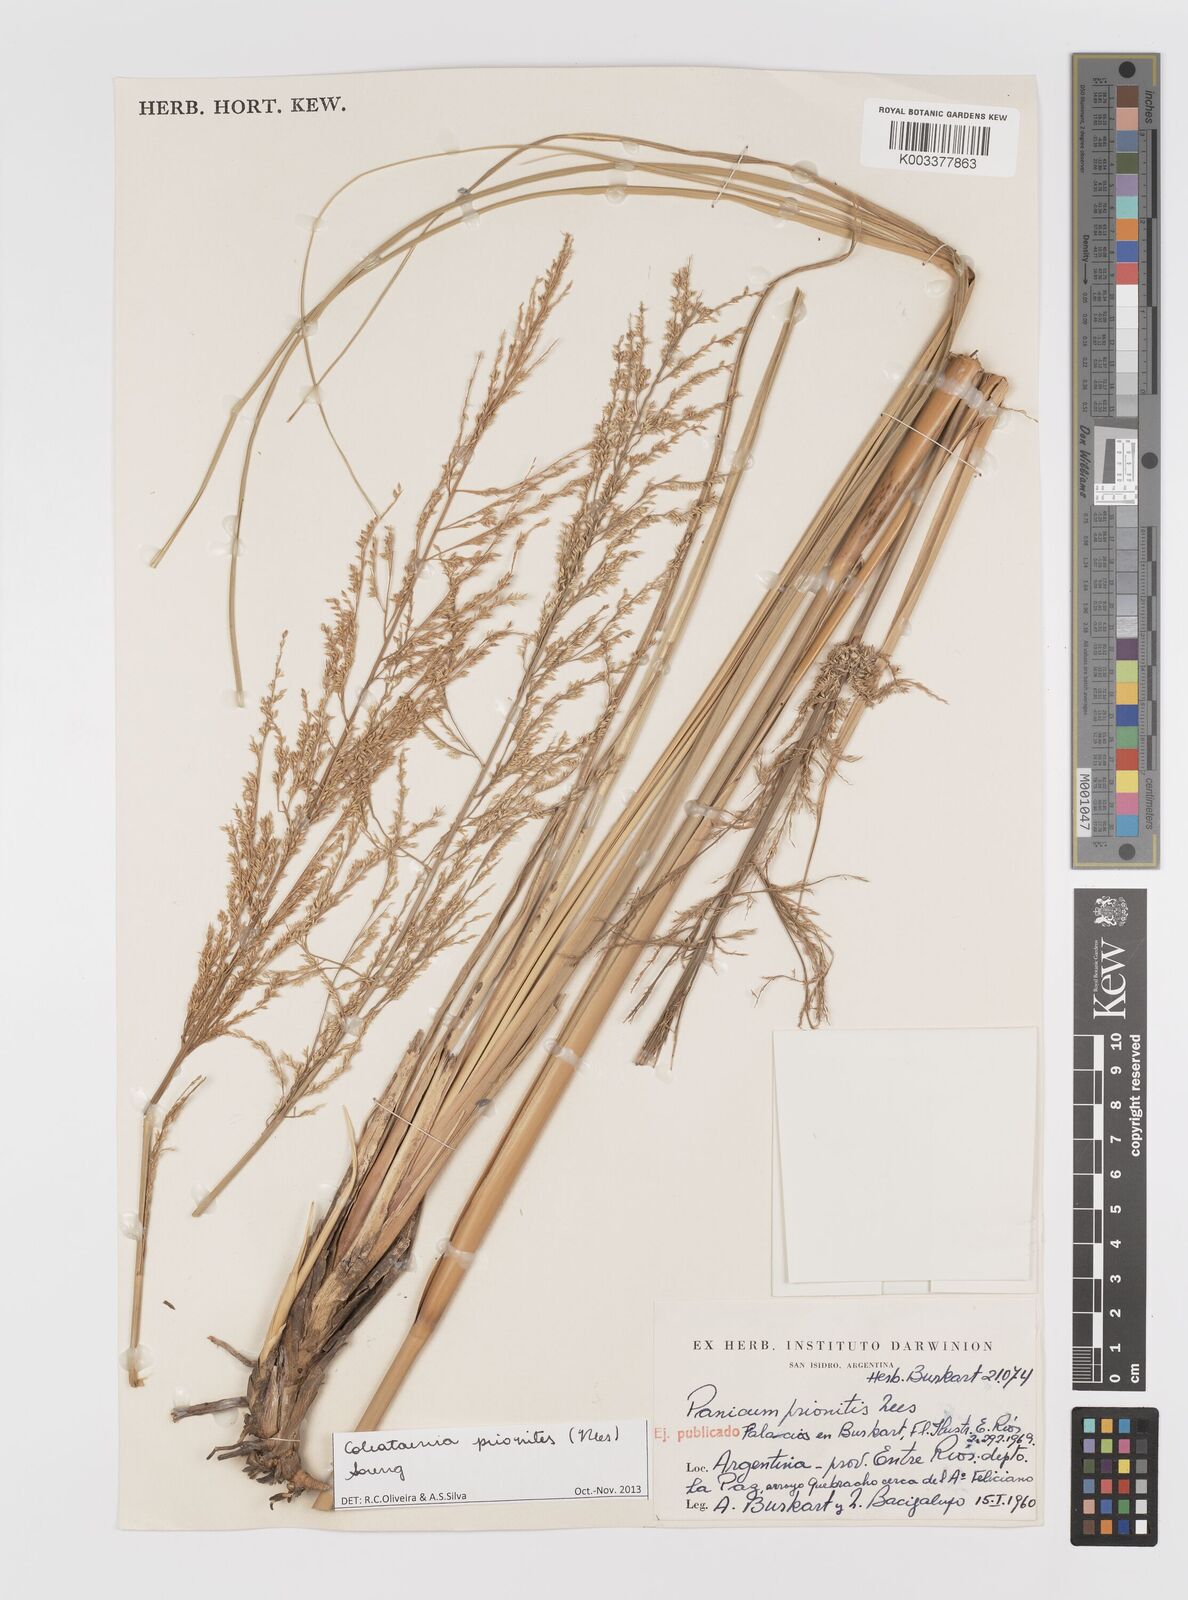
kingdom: Plantae
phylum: Tracheophyta
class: Liliopsida
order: Poales
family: Poaceae
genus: Coleataenia
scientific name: Coleataenia prionitis
